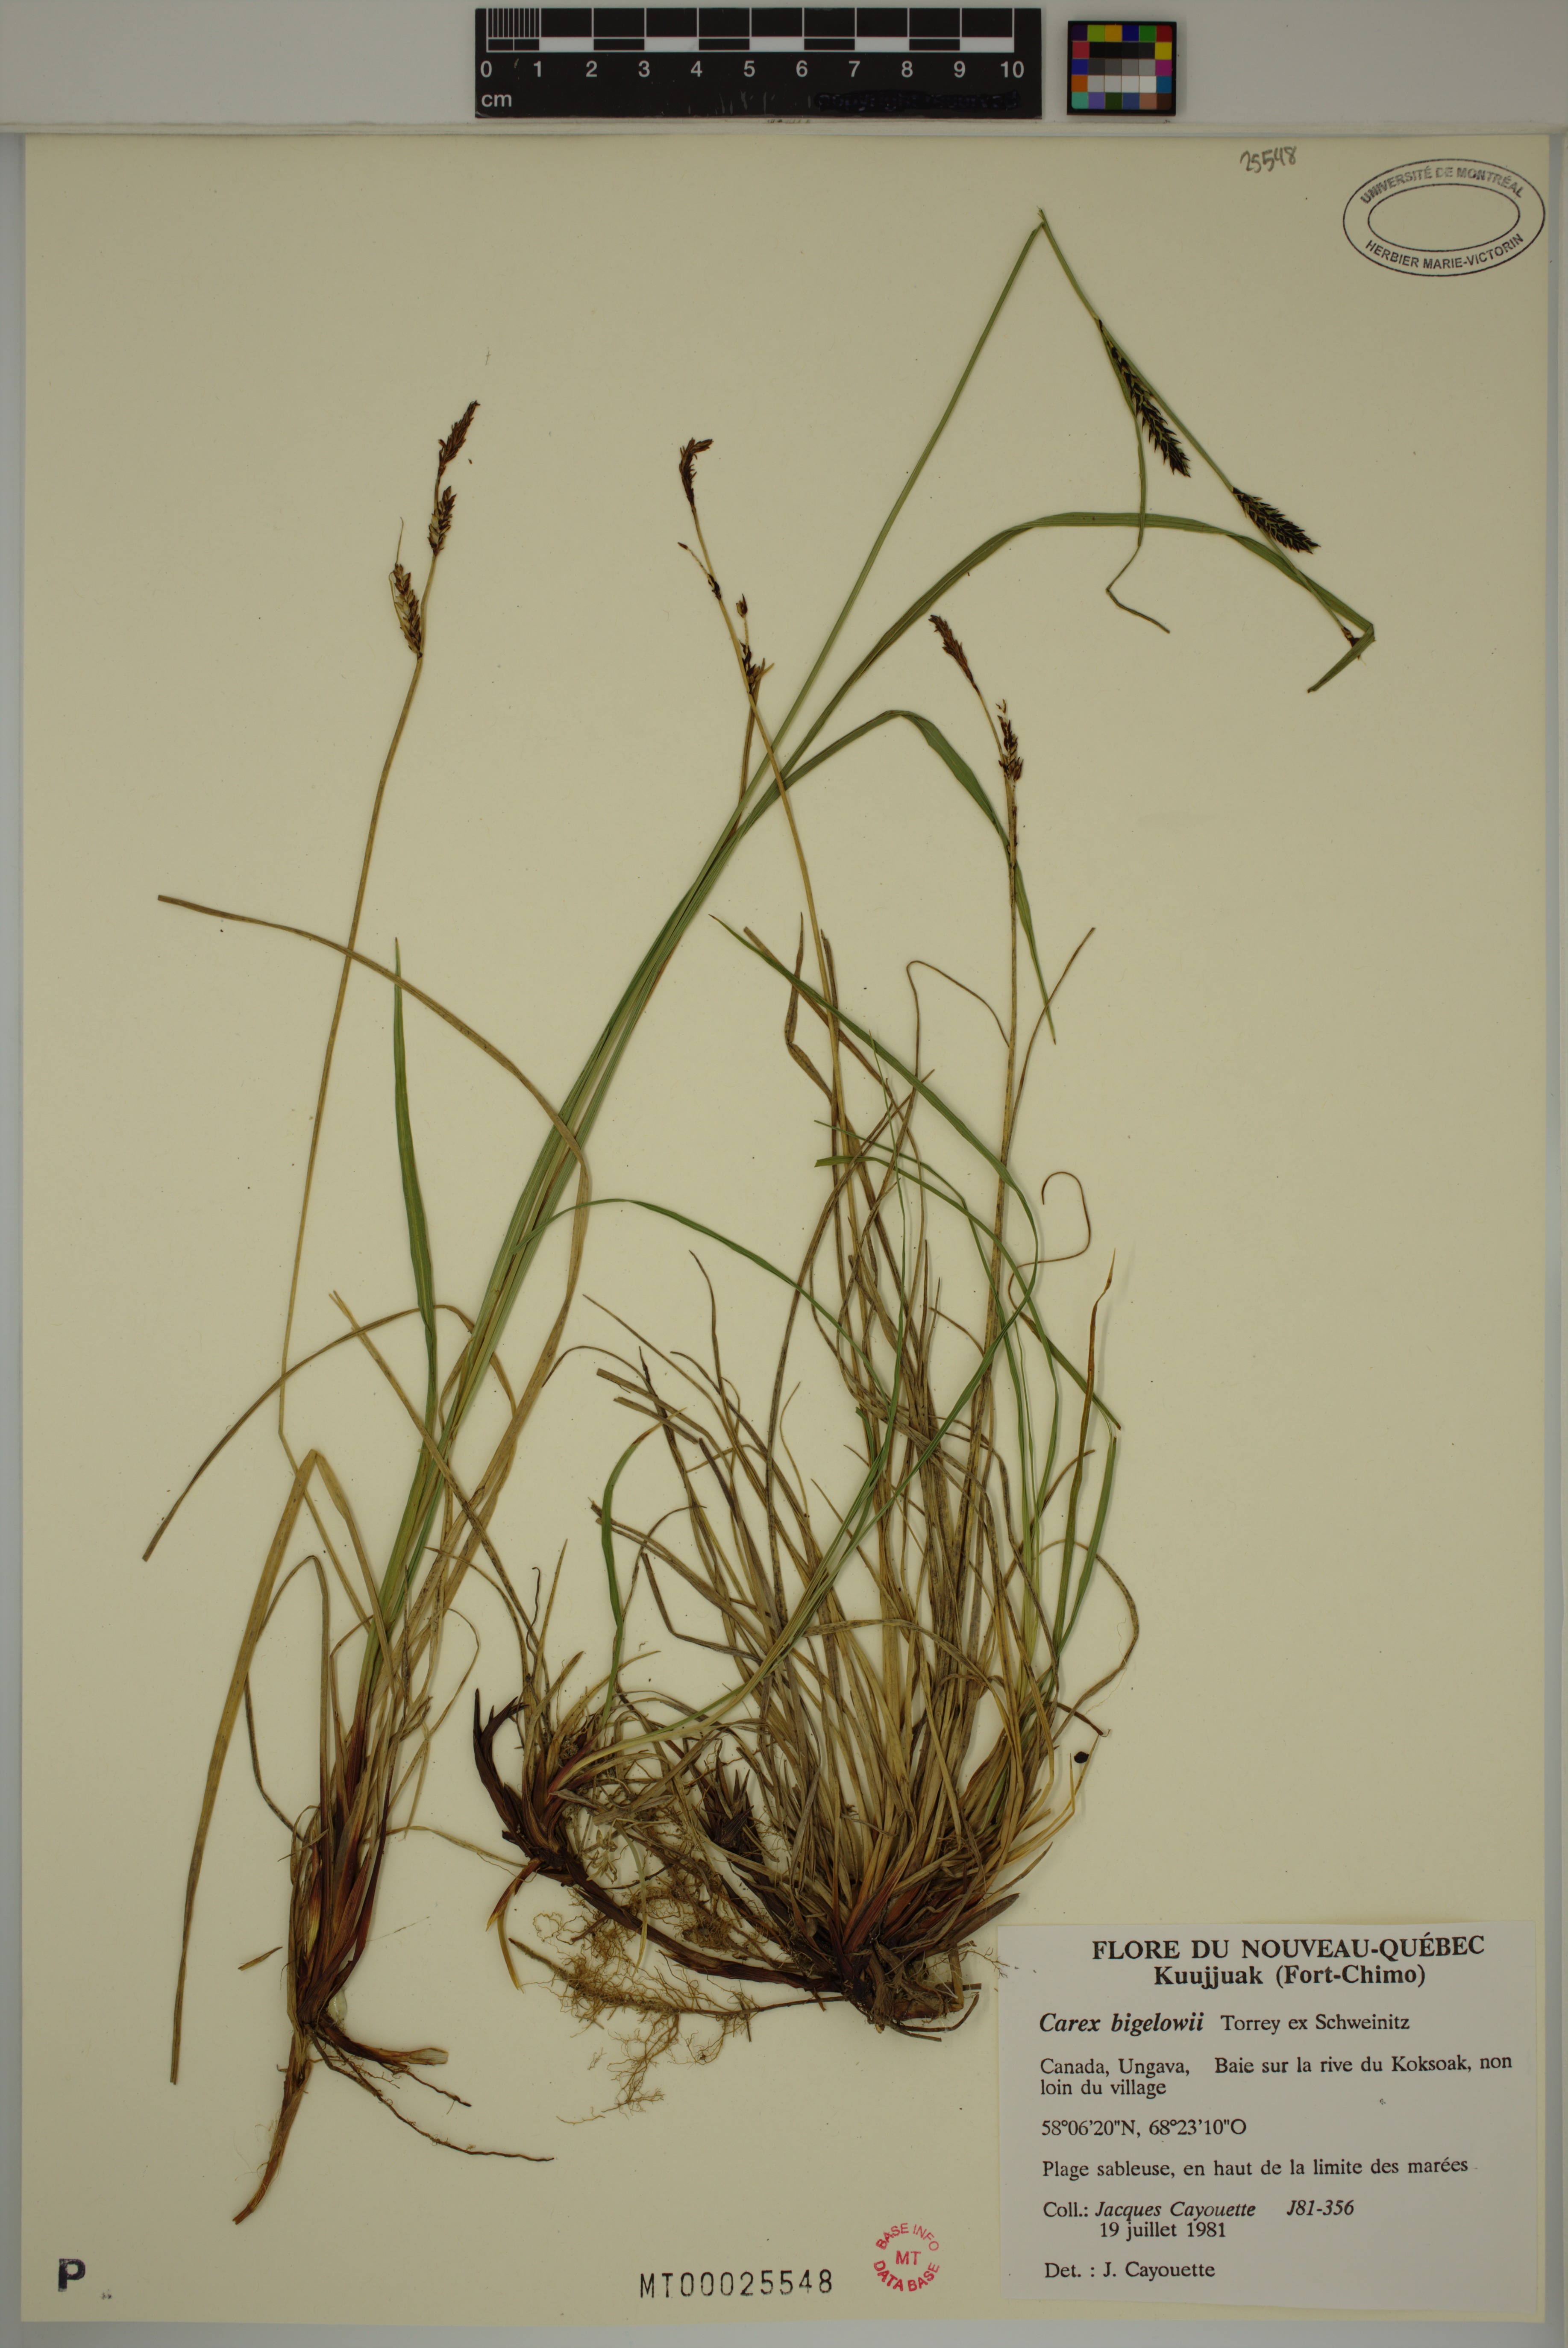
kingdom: Plantae
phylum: Tracheophyta
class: Liliopsida
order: Poales
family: Cyperaceae
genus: Carex
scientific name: Carex bigelowii
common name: Stiff sedge
